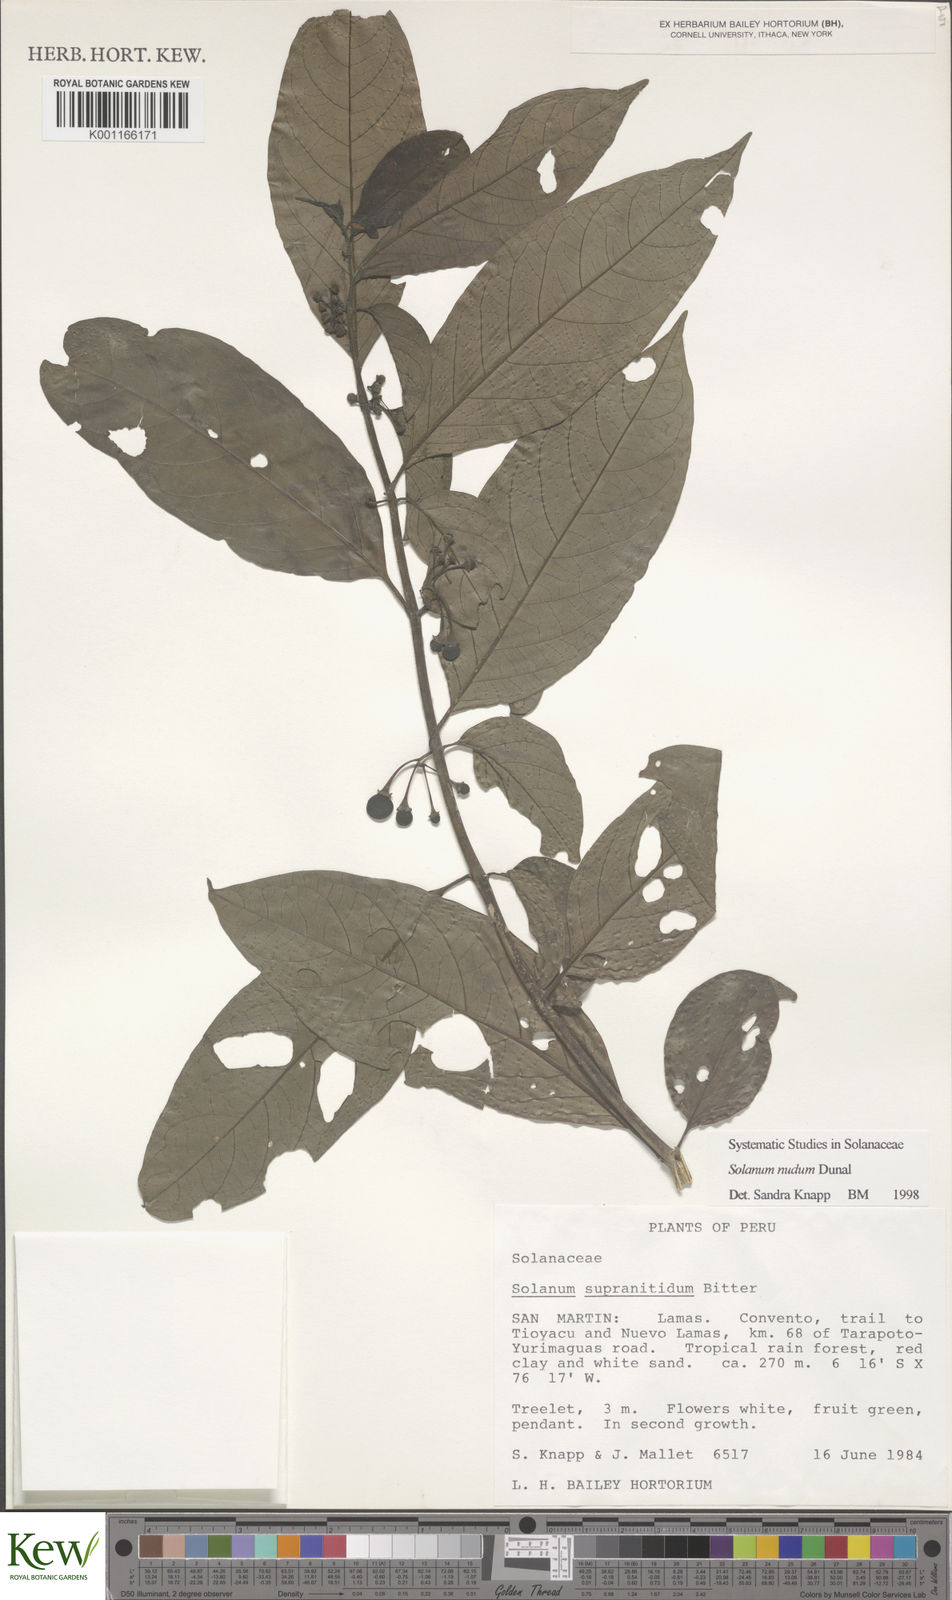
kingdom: Plantae
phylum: Tracheophyta
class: Magnoliopsida
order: Solanales
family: Solanaceae
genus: Solanum
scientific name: Solanum nudum
